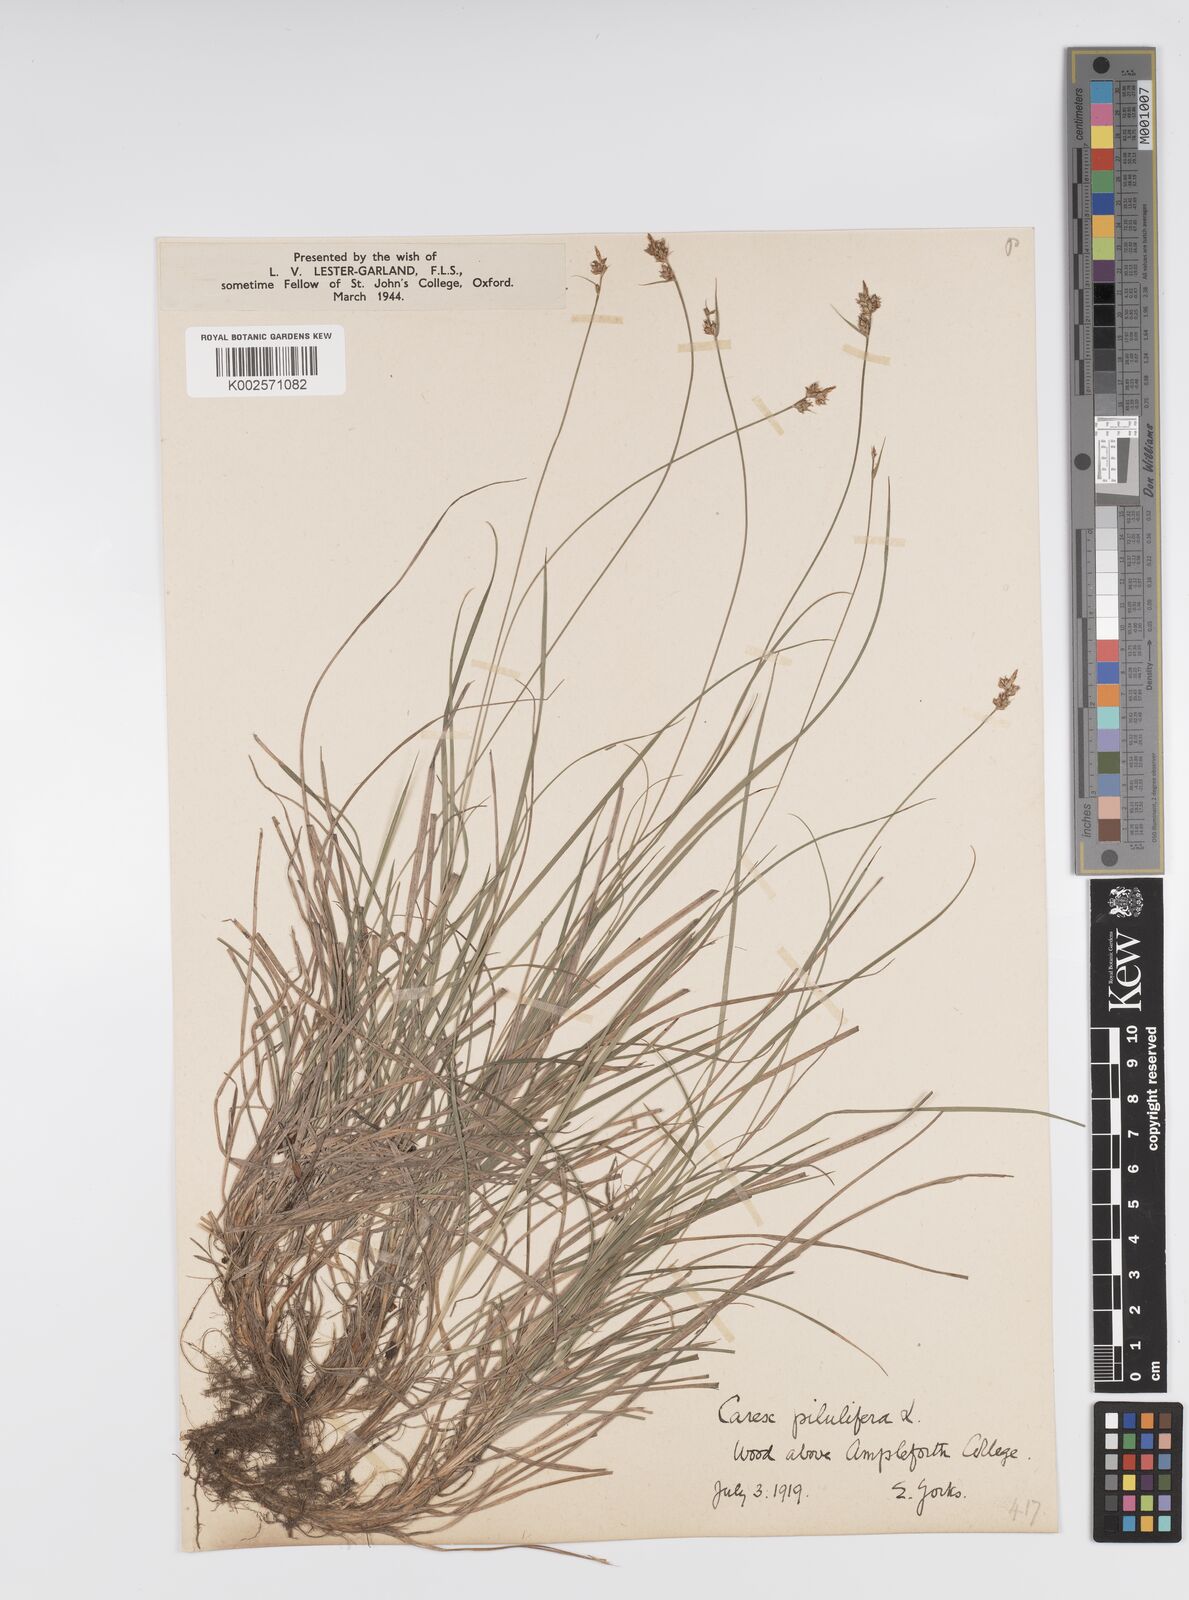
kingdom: Plantae
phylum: Tracheophyta
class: Liliopsida
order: Poales
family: Cyperaceae
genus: Carex
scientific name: Carex pilulifera
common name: Pill sedge
